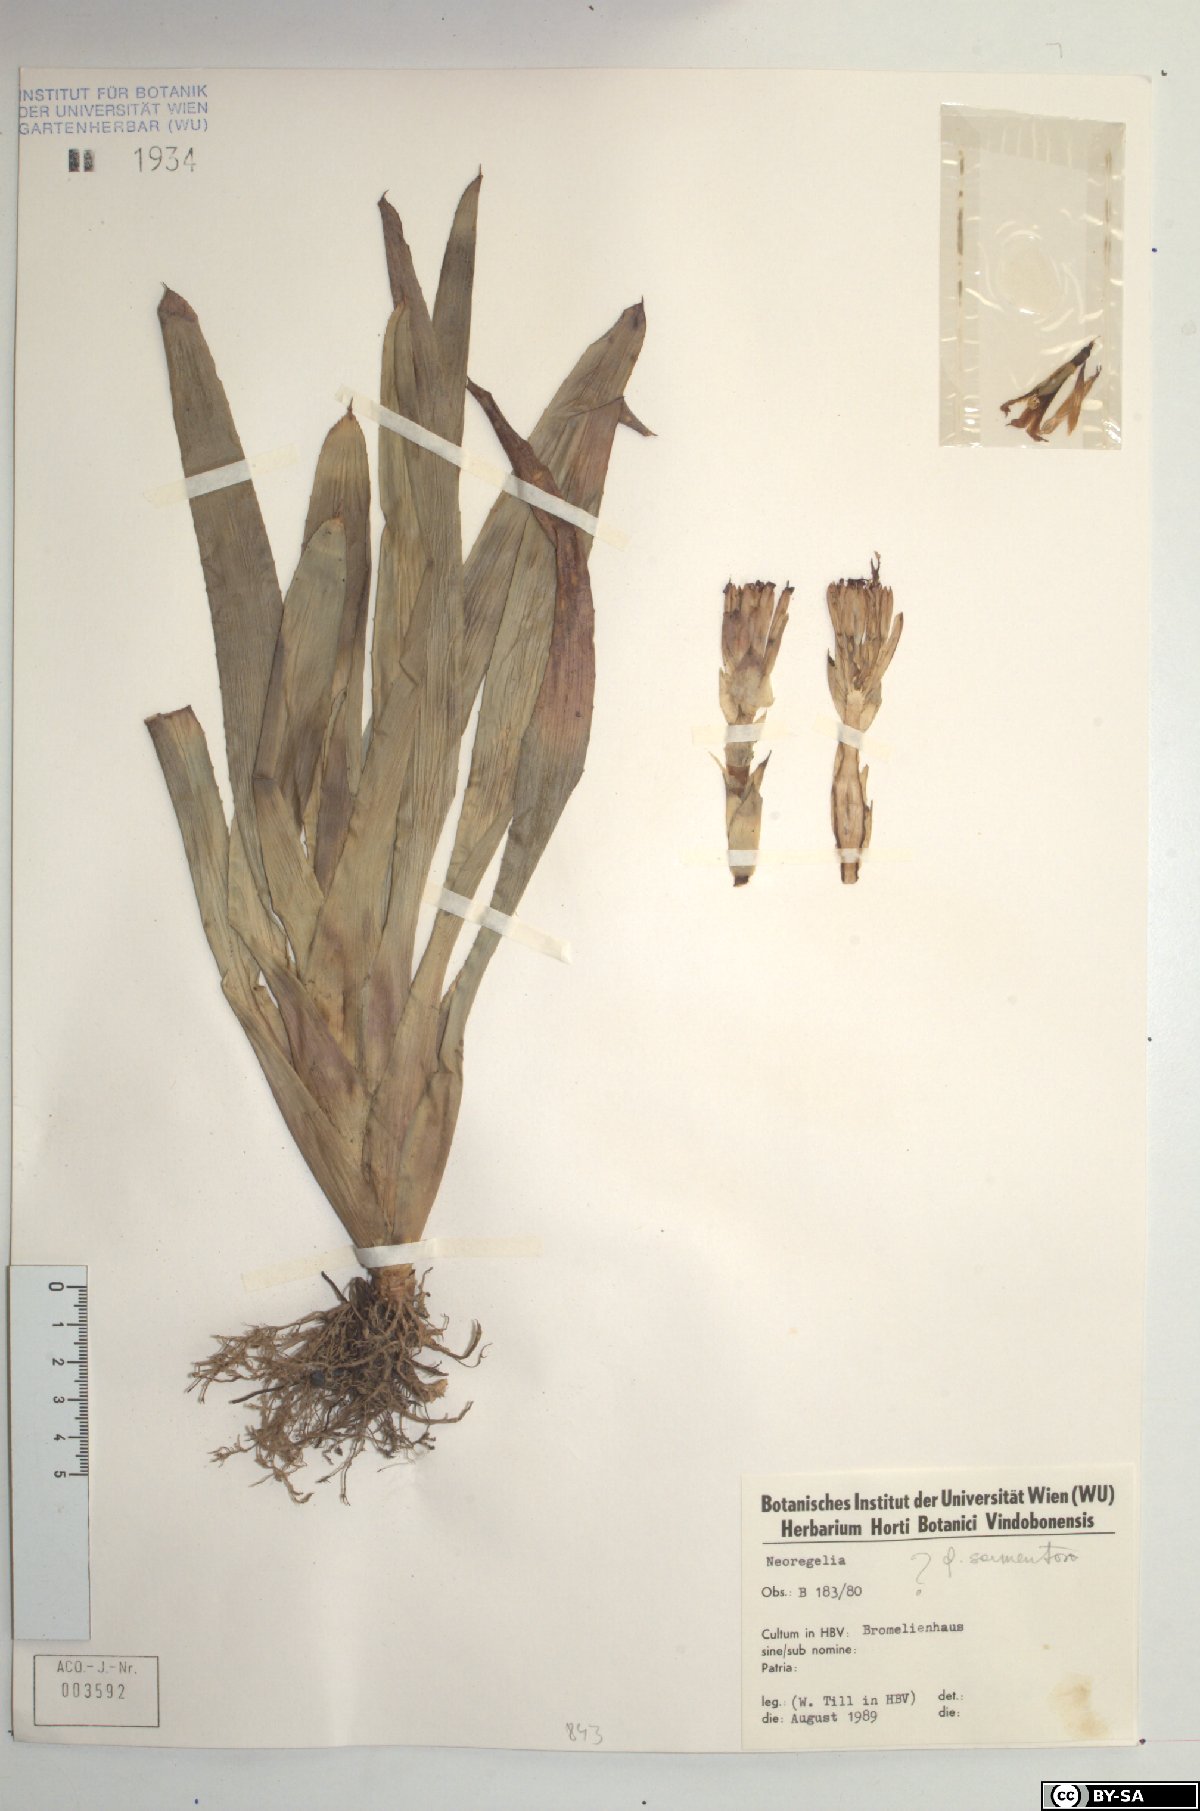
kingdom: Plantae
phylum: Tracheophyta
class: Liliopsida
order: Poales
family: Bromeliaceae
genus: Neoregelia
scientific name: Neoregelia sarmentosa
